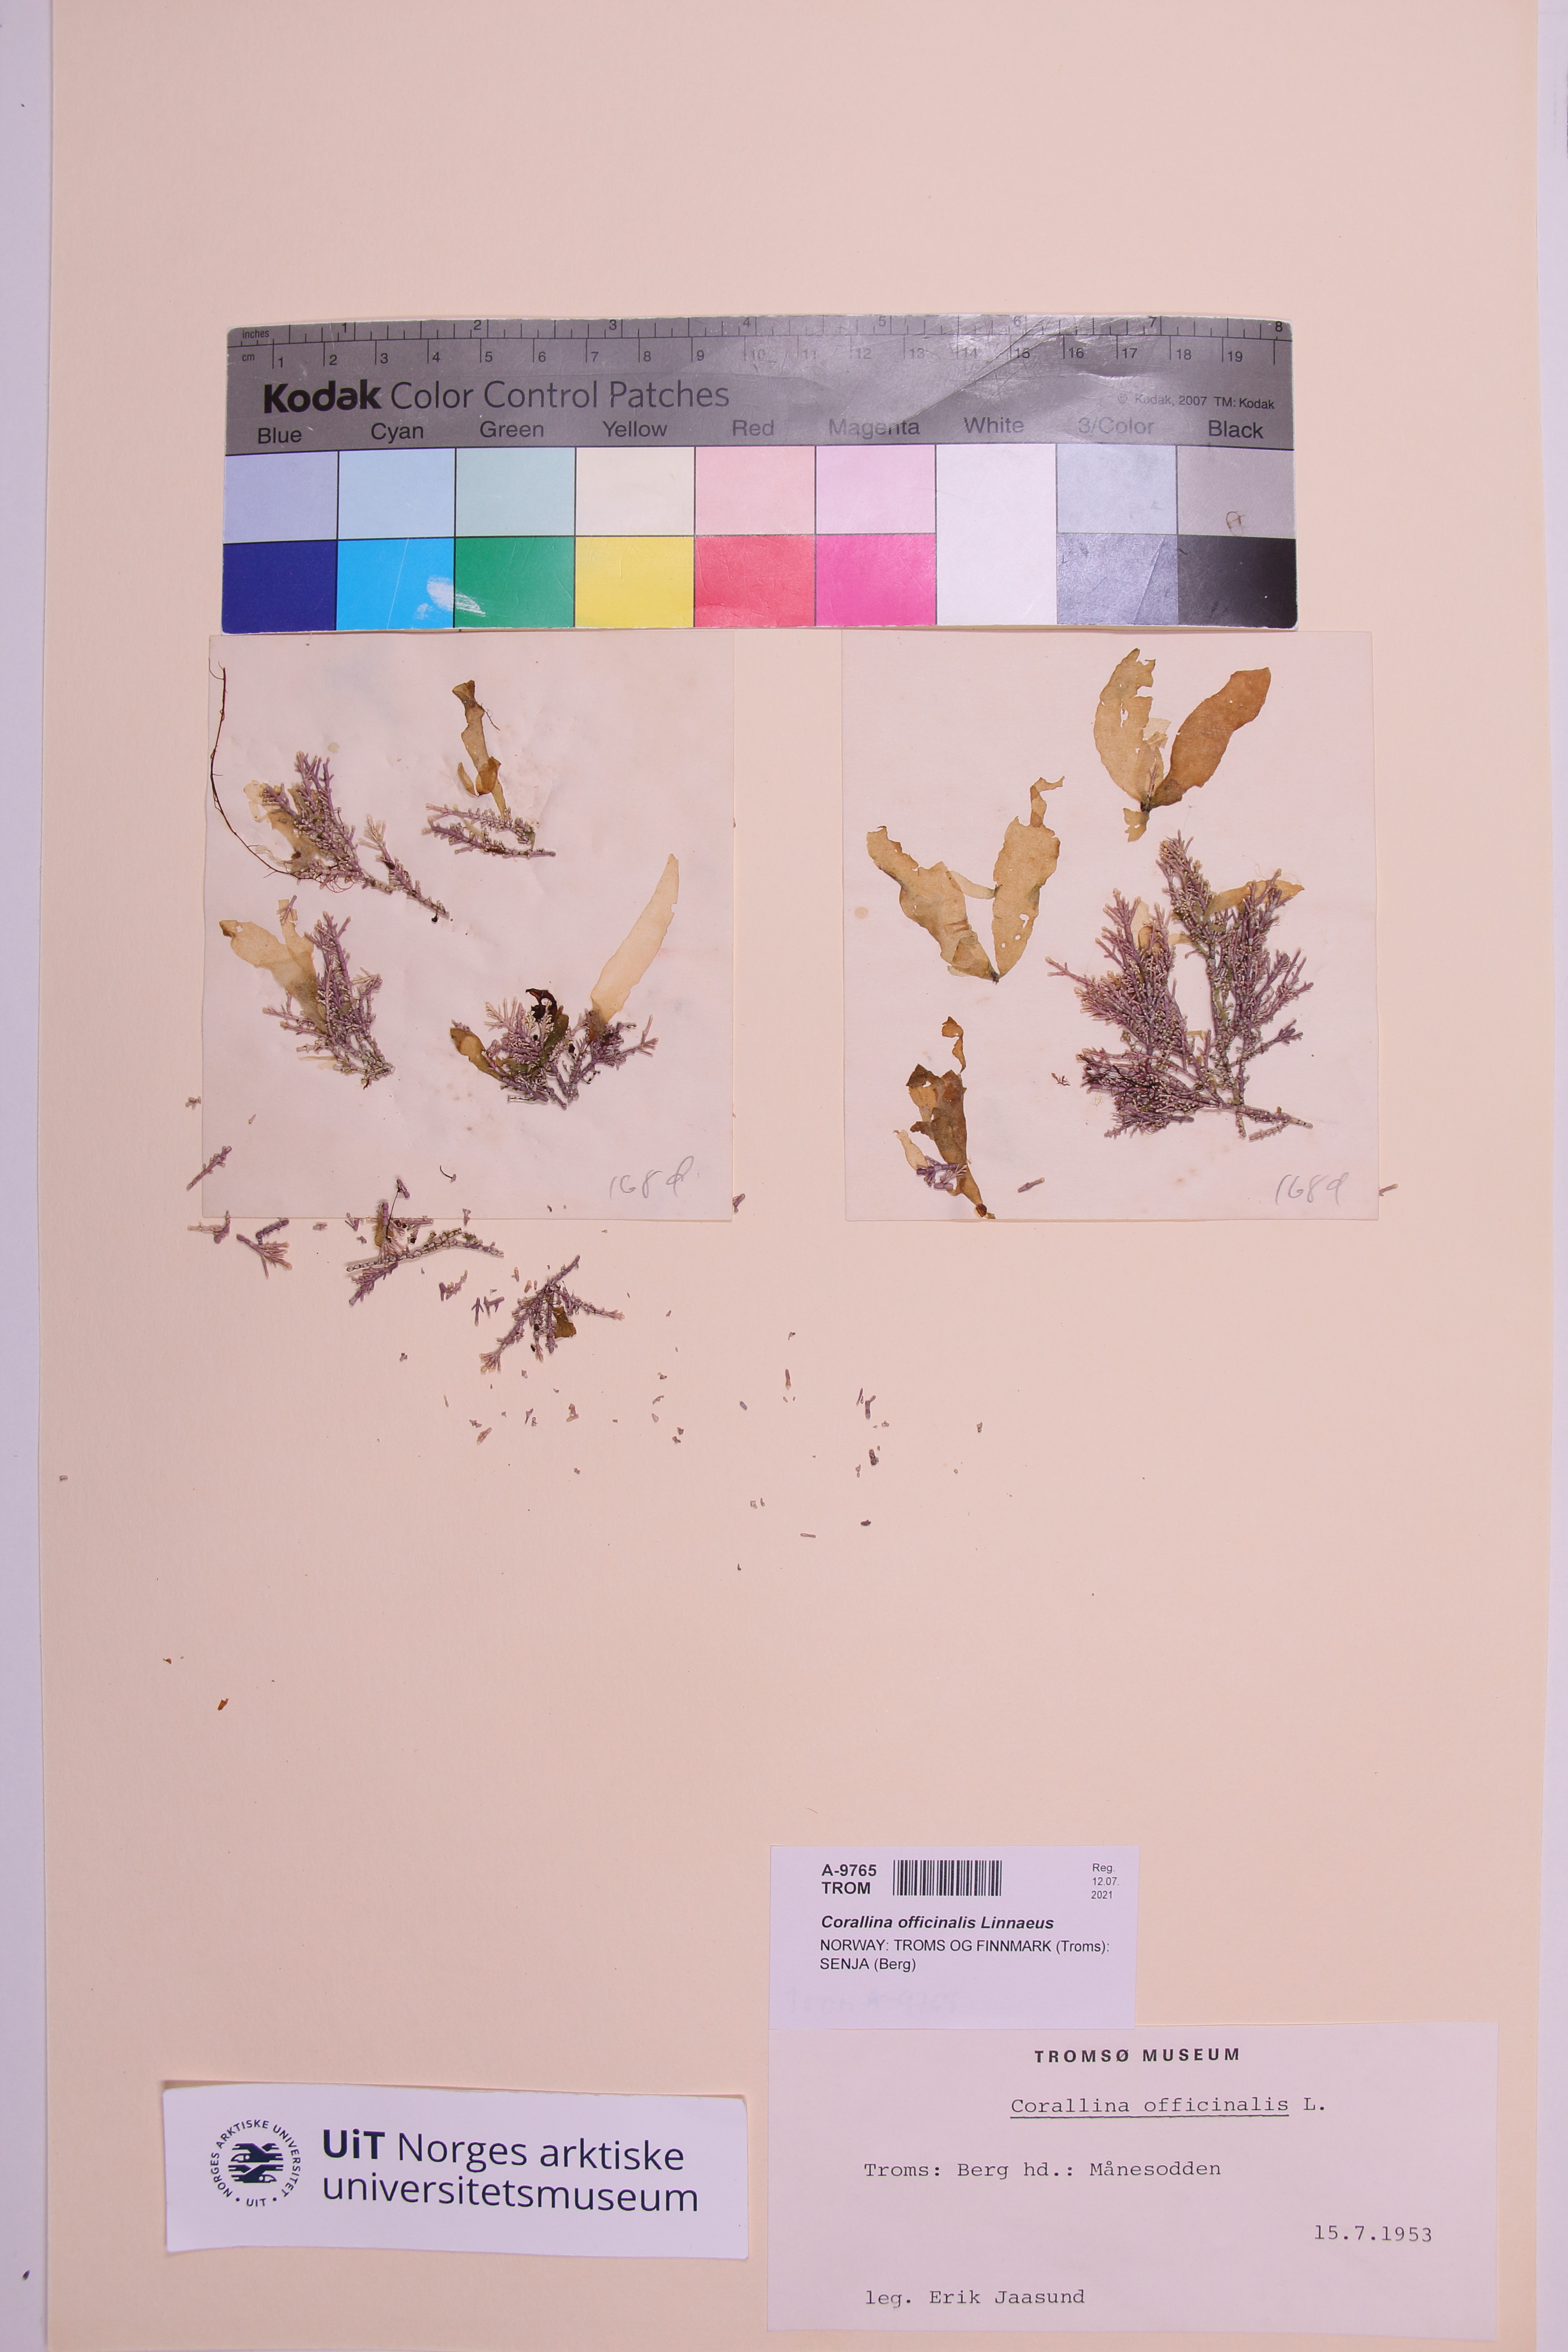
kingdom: Plantae
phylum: Rhodophyta
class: Florideophyceae
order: Corallinales
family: Corallinaceae
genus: Corallina
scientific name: Corallina officinalis
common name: Coral weed
